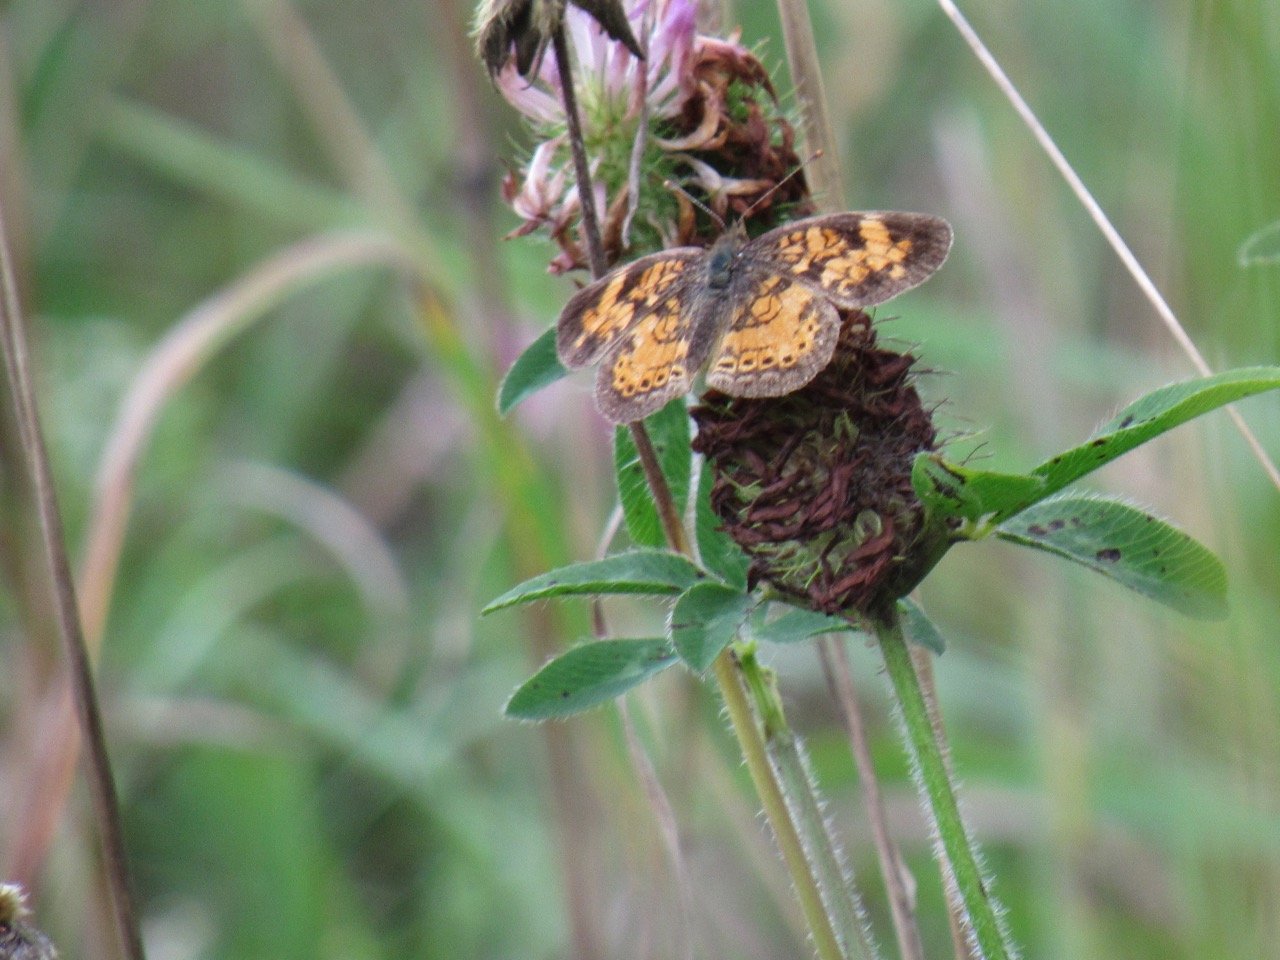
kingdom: Animalia
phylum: Arthropoda
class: Insecta
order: Lepidoptera
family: Nymphalidae
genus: Phyciodes
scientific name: Phyciodes tharos
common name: Pearl Crescent
